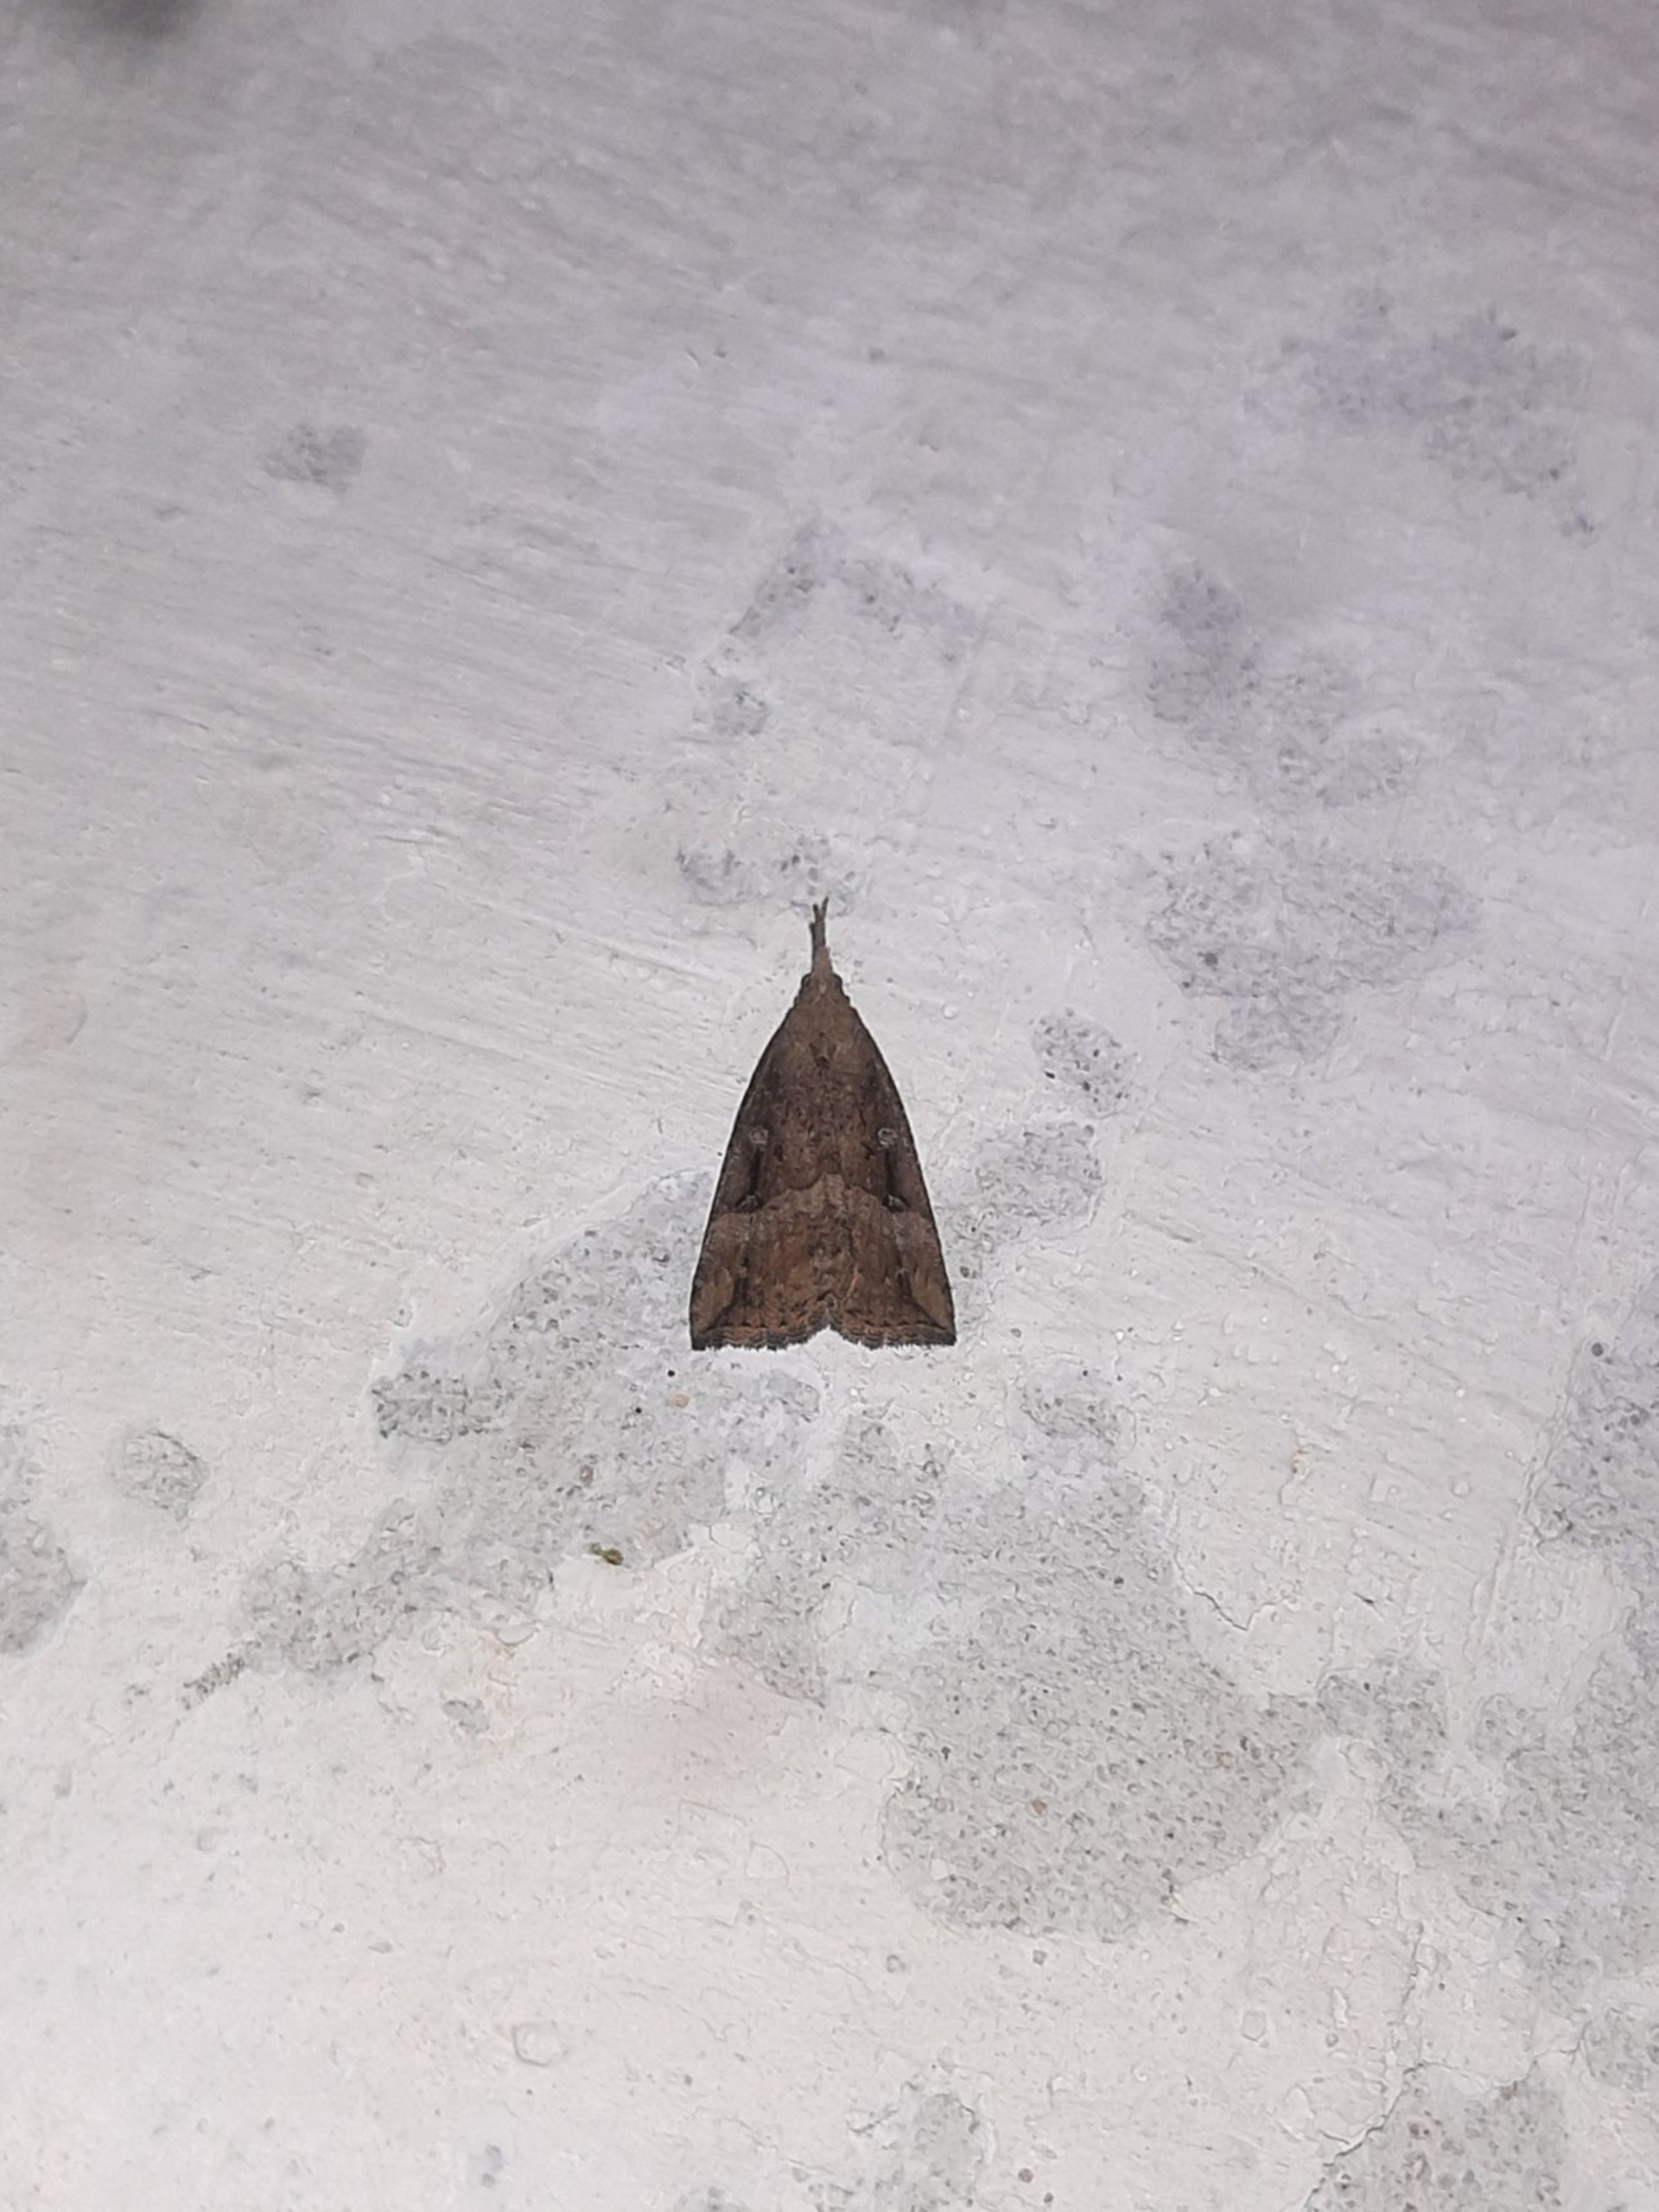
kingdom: Animalia
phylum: Arthropoda
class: Insecta
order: Lepidoptera
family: Erebidae
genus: Hypena
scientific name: Hypena rostralis
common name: Humleugle
